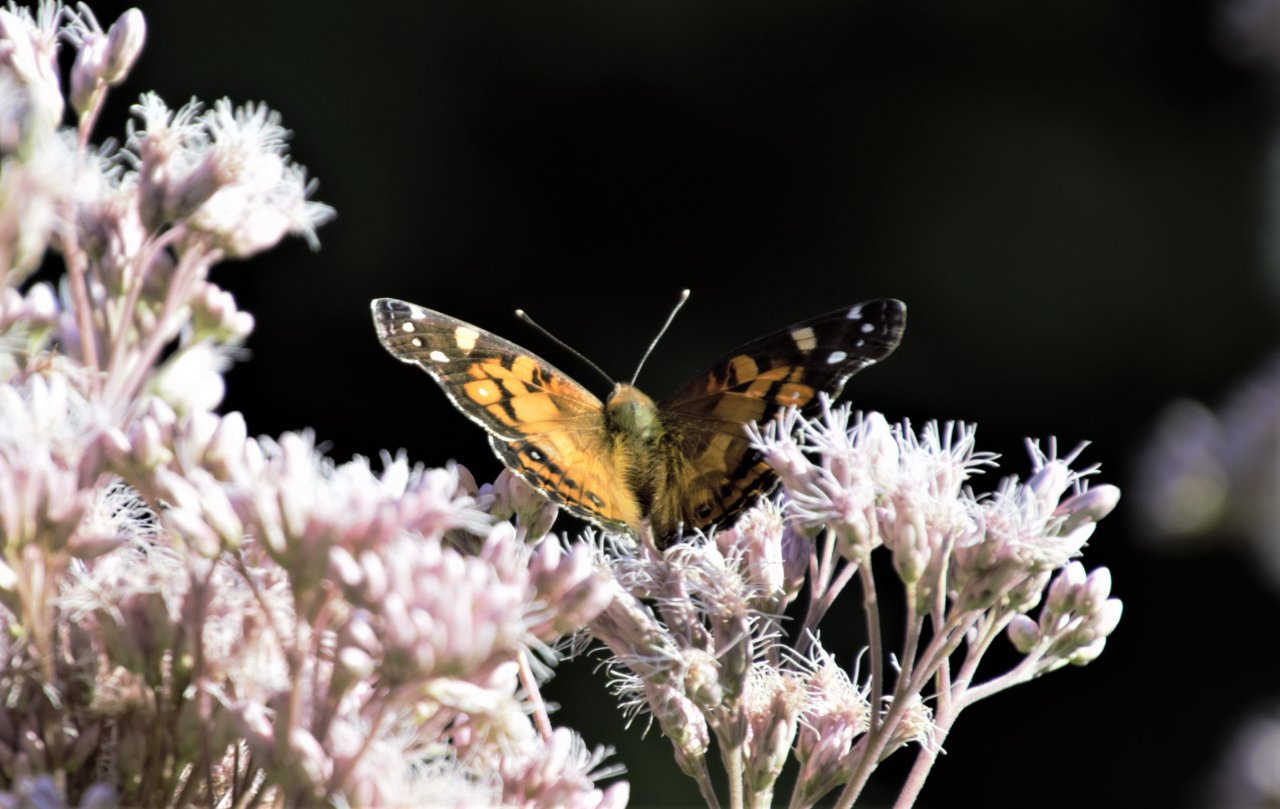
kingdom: Animalia
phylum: Arthropoda
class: Insecta
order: Lepidoptera
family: Nymphalidae
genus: Vanessa
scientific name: Vanessa virginiensis
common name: American Lady
